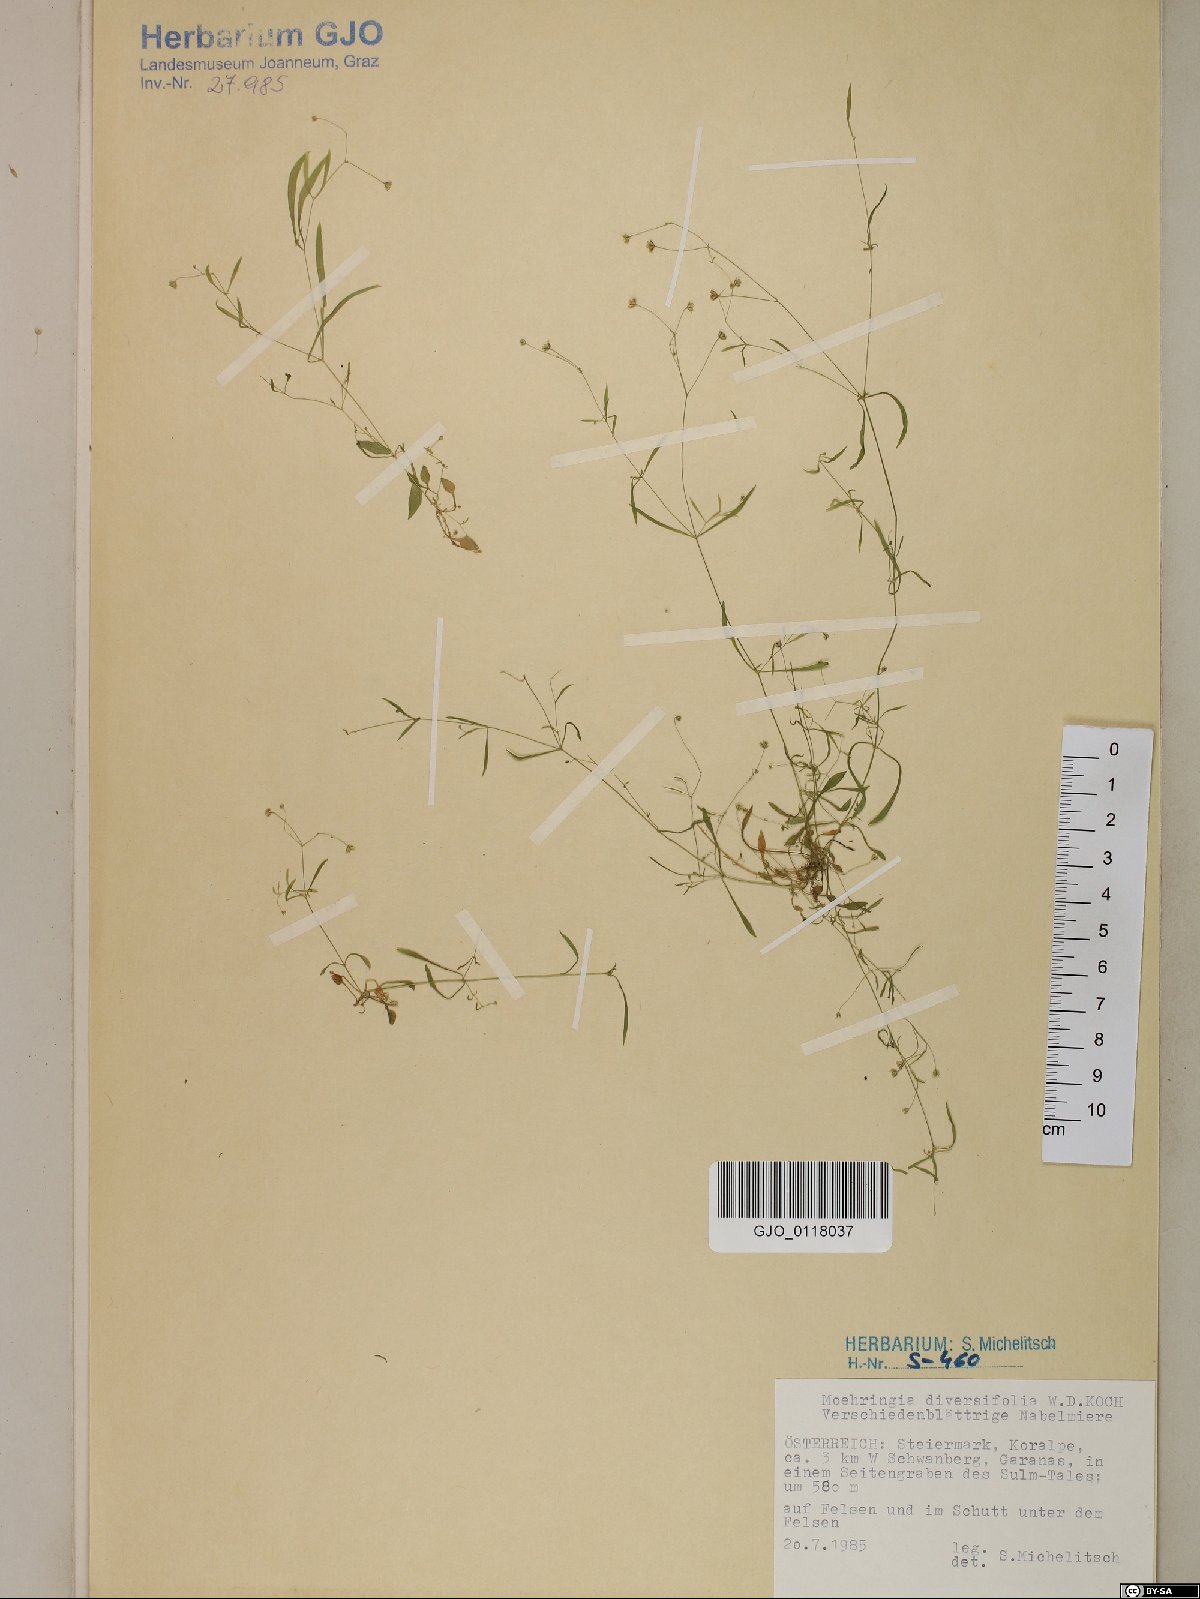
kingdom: Plantae
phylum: Tracheophyta
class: Magnoliopsida
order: Caryophyllales
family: Caryophyllaceae
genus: Moehringia
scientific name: Moehringia diversifolia
